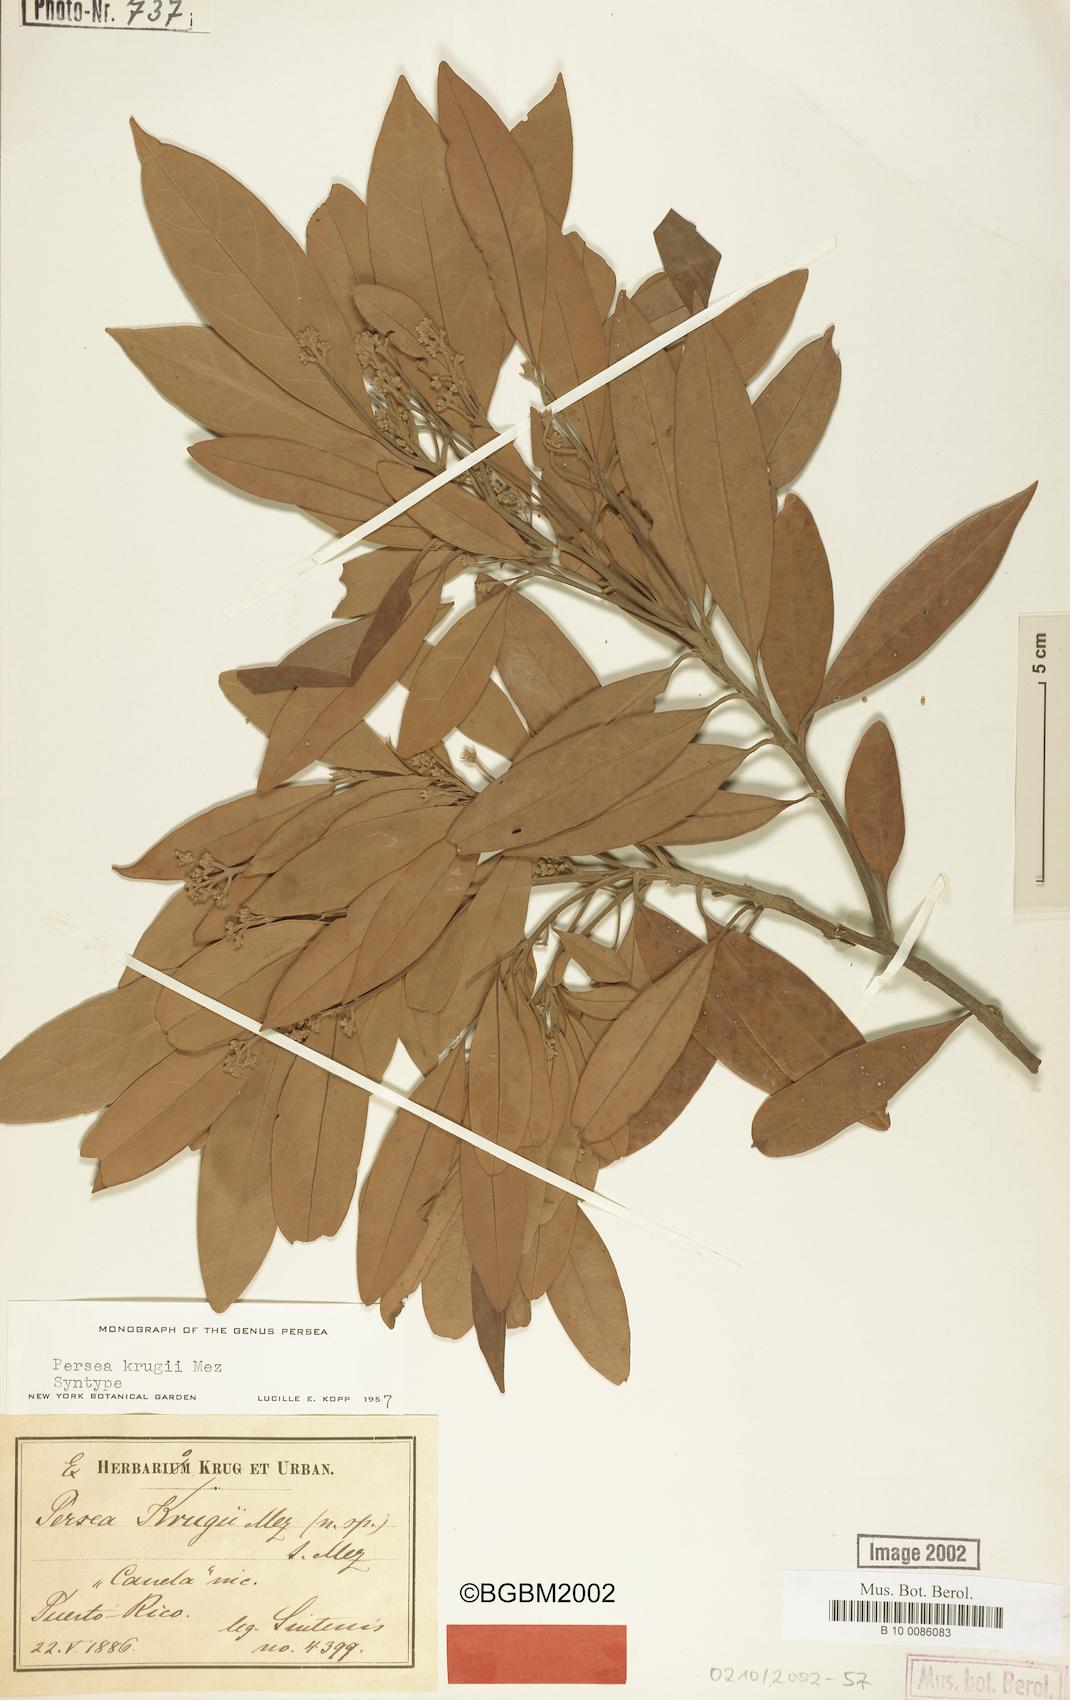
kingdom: Plantae
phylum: Tracheophyta
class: Magnoliopsida
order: Laurales
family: Lauraceae
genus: Persea
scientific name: Persea krugii
